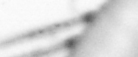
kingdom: Animalia
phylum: Annelida
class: Polychaeta
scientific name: Polychaeta
